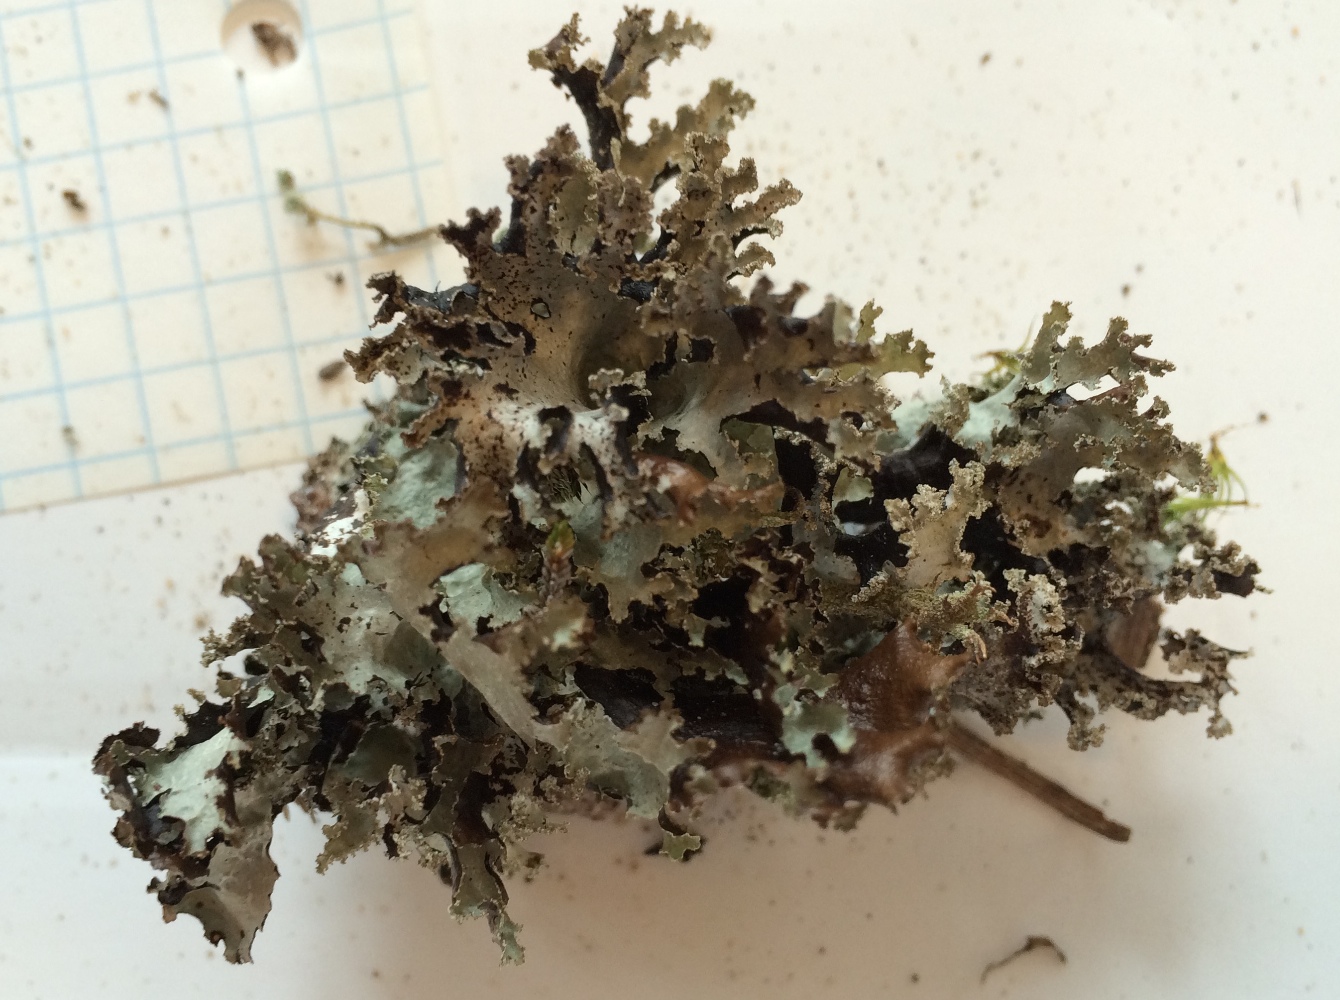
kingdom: Fungi
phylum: Ascomycota
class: Lecanoromycetes
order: Lecanorales
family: Parmeliaceae
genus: Platismatia
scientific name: Platismatia glauca
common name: blågrå papirlav
